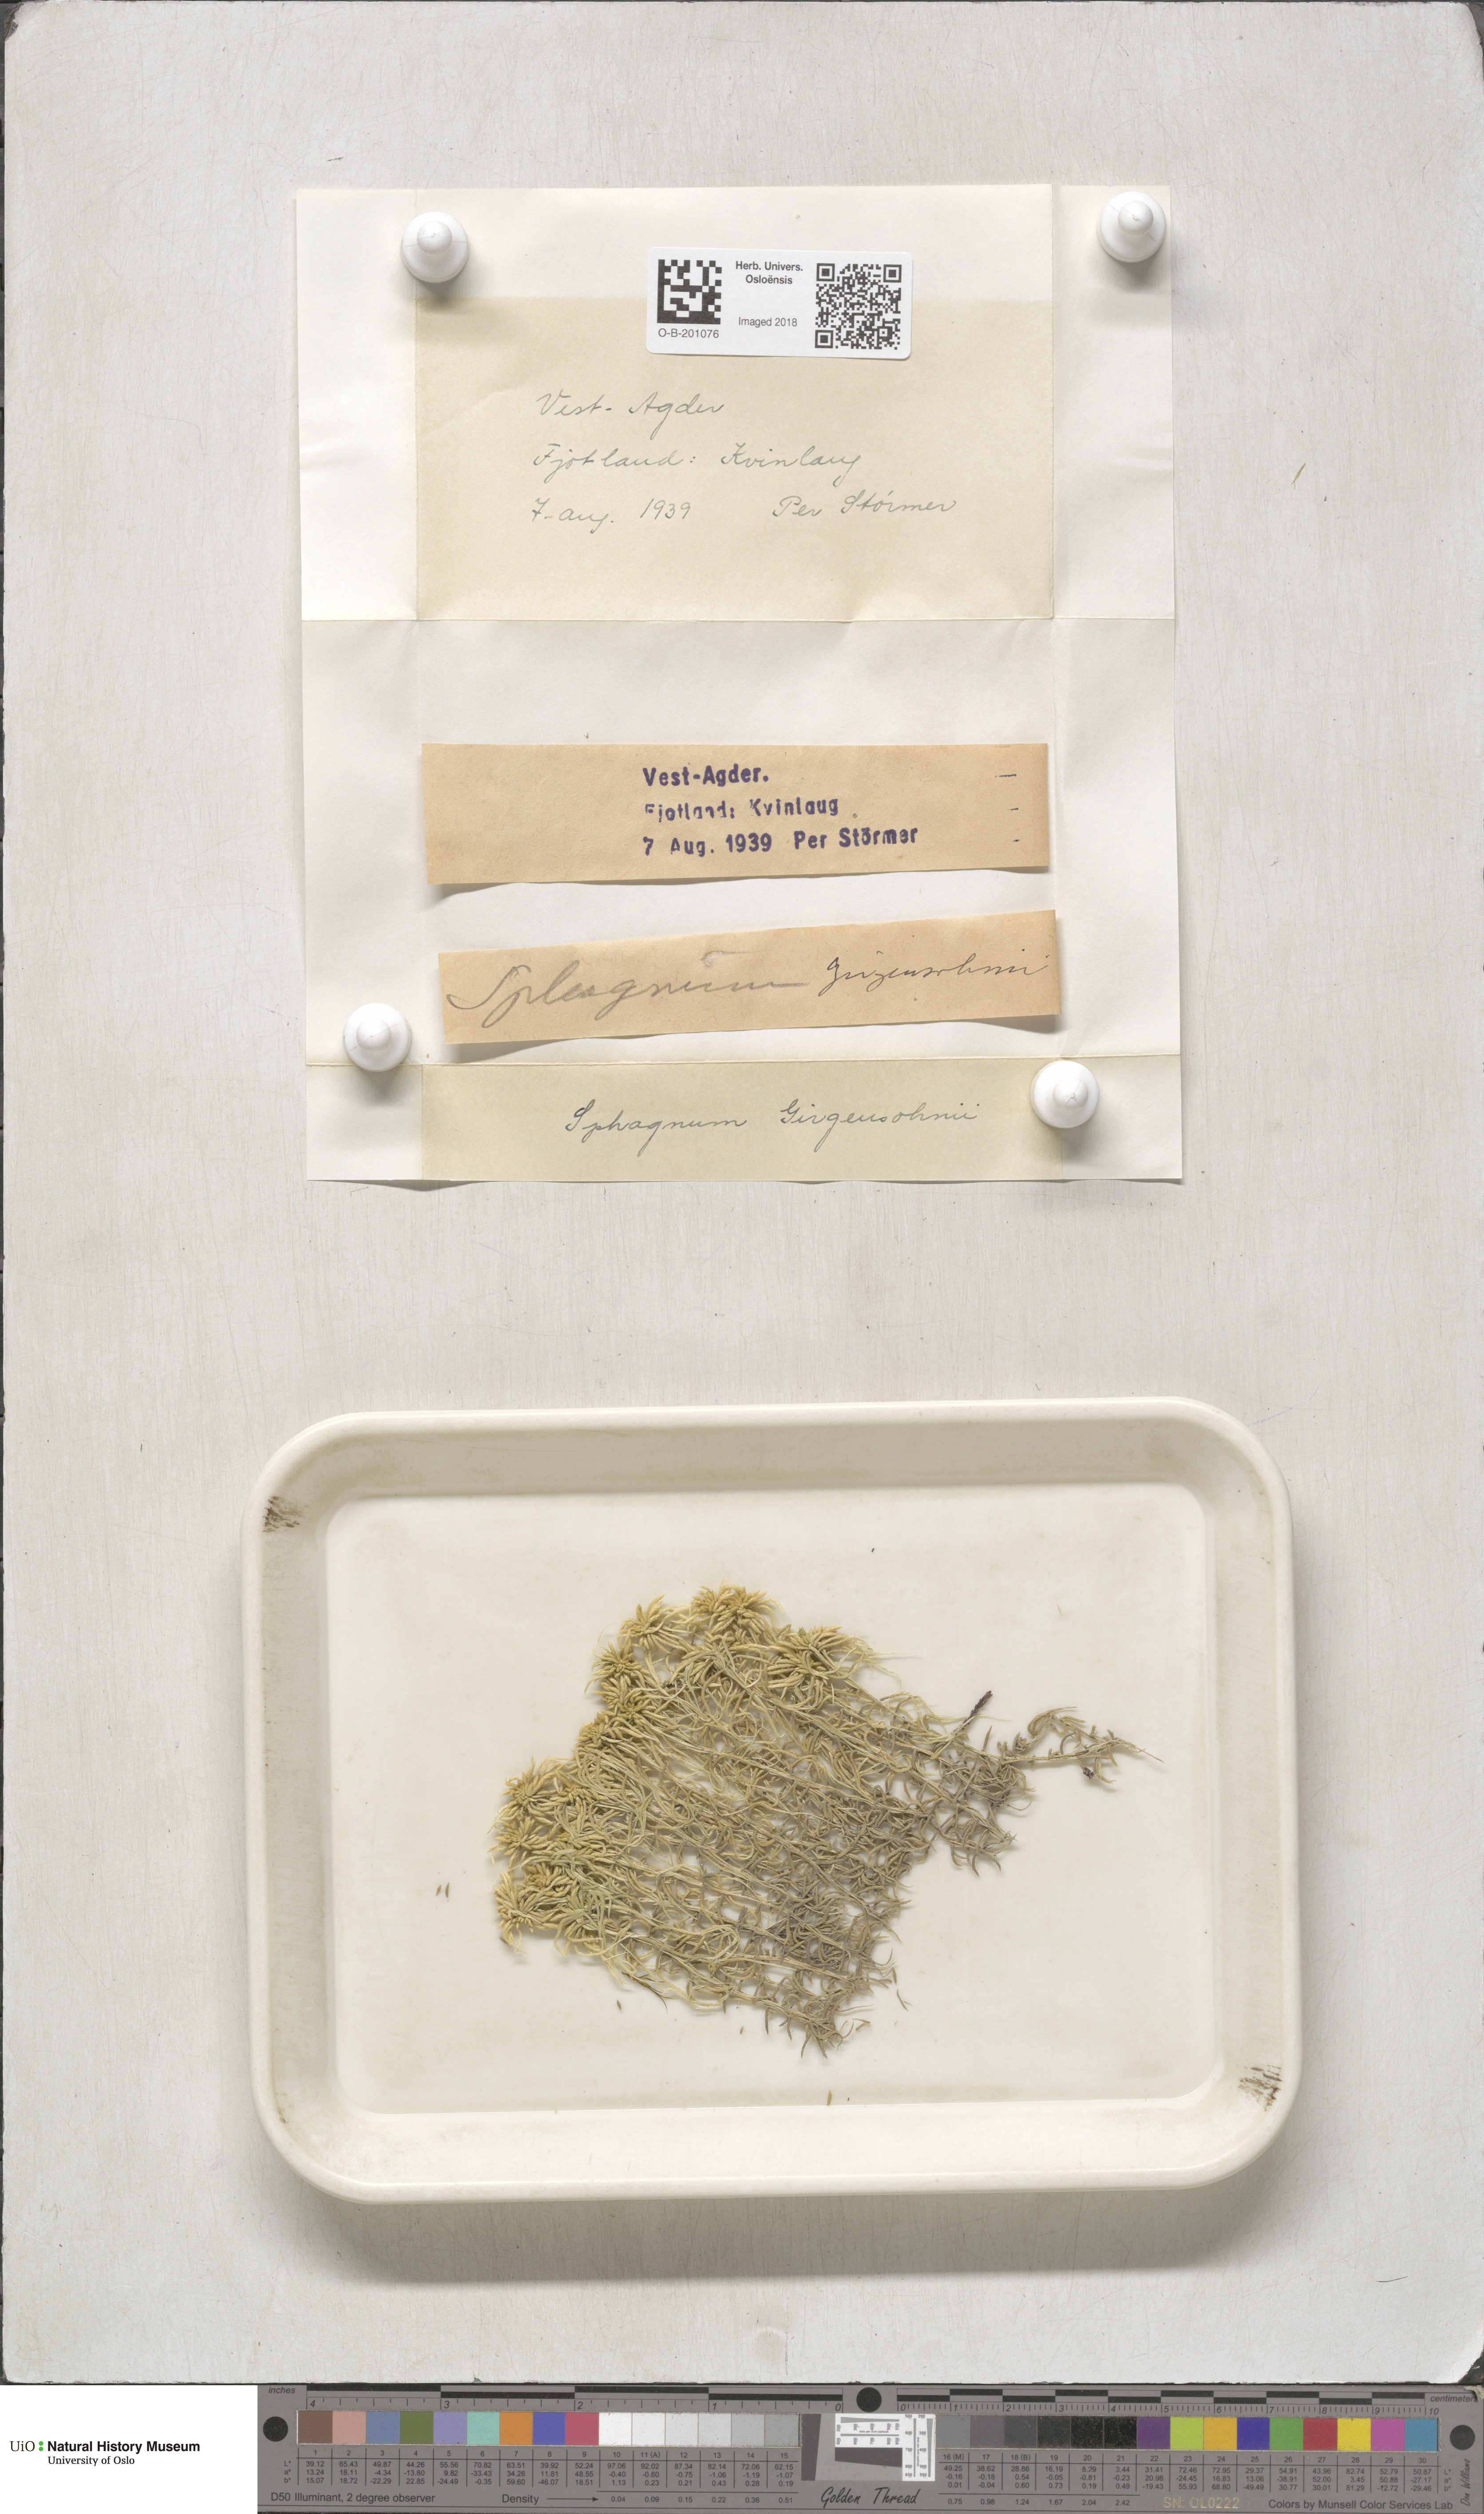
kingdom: Plantae
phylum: Bryophyta
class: Sphagnopsida
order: Sphagnales
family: Sphagnaceae
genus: Sphagnum
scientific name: Sphagnum girgensohnii
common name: Girgensohn's peat moss
